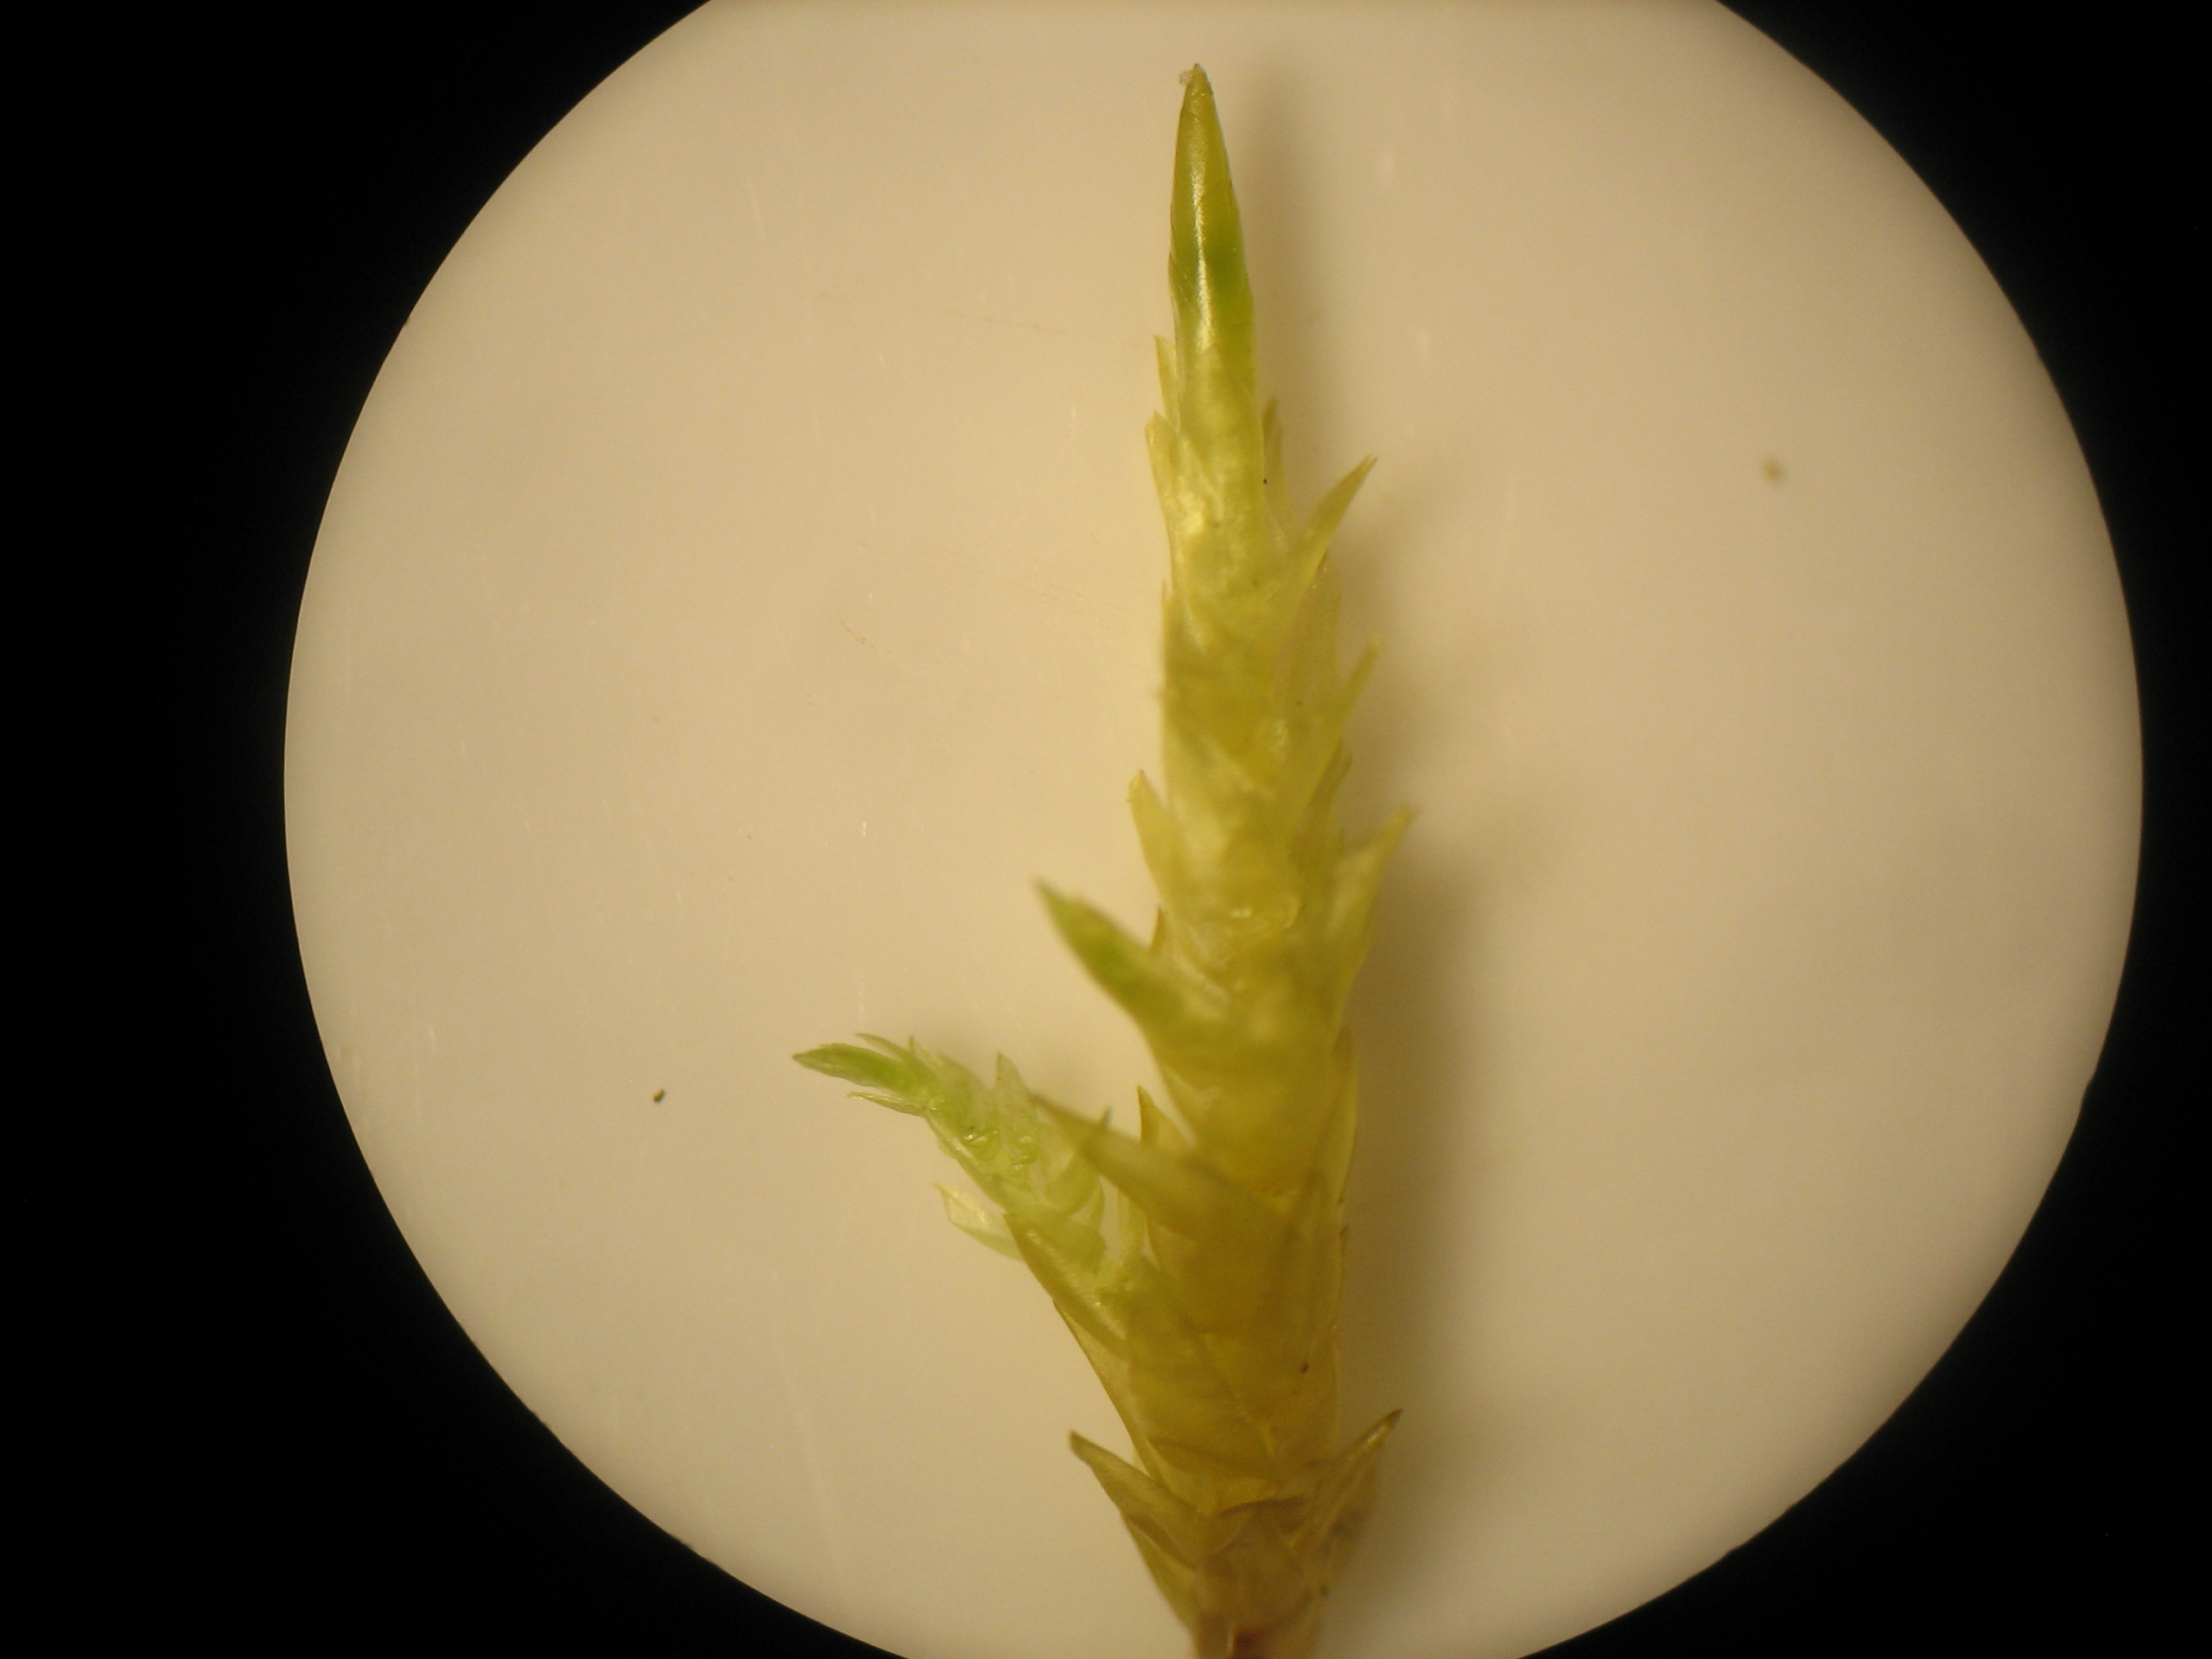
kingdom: Plantae
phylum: Bryophyta
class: Bryopsida
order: Hypnales
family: Pylaisiaceae
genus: Calliergonella
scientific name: Calliergonella cuspidata
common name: Spids spydmos
